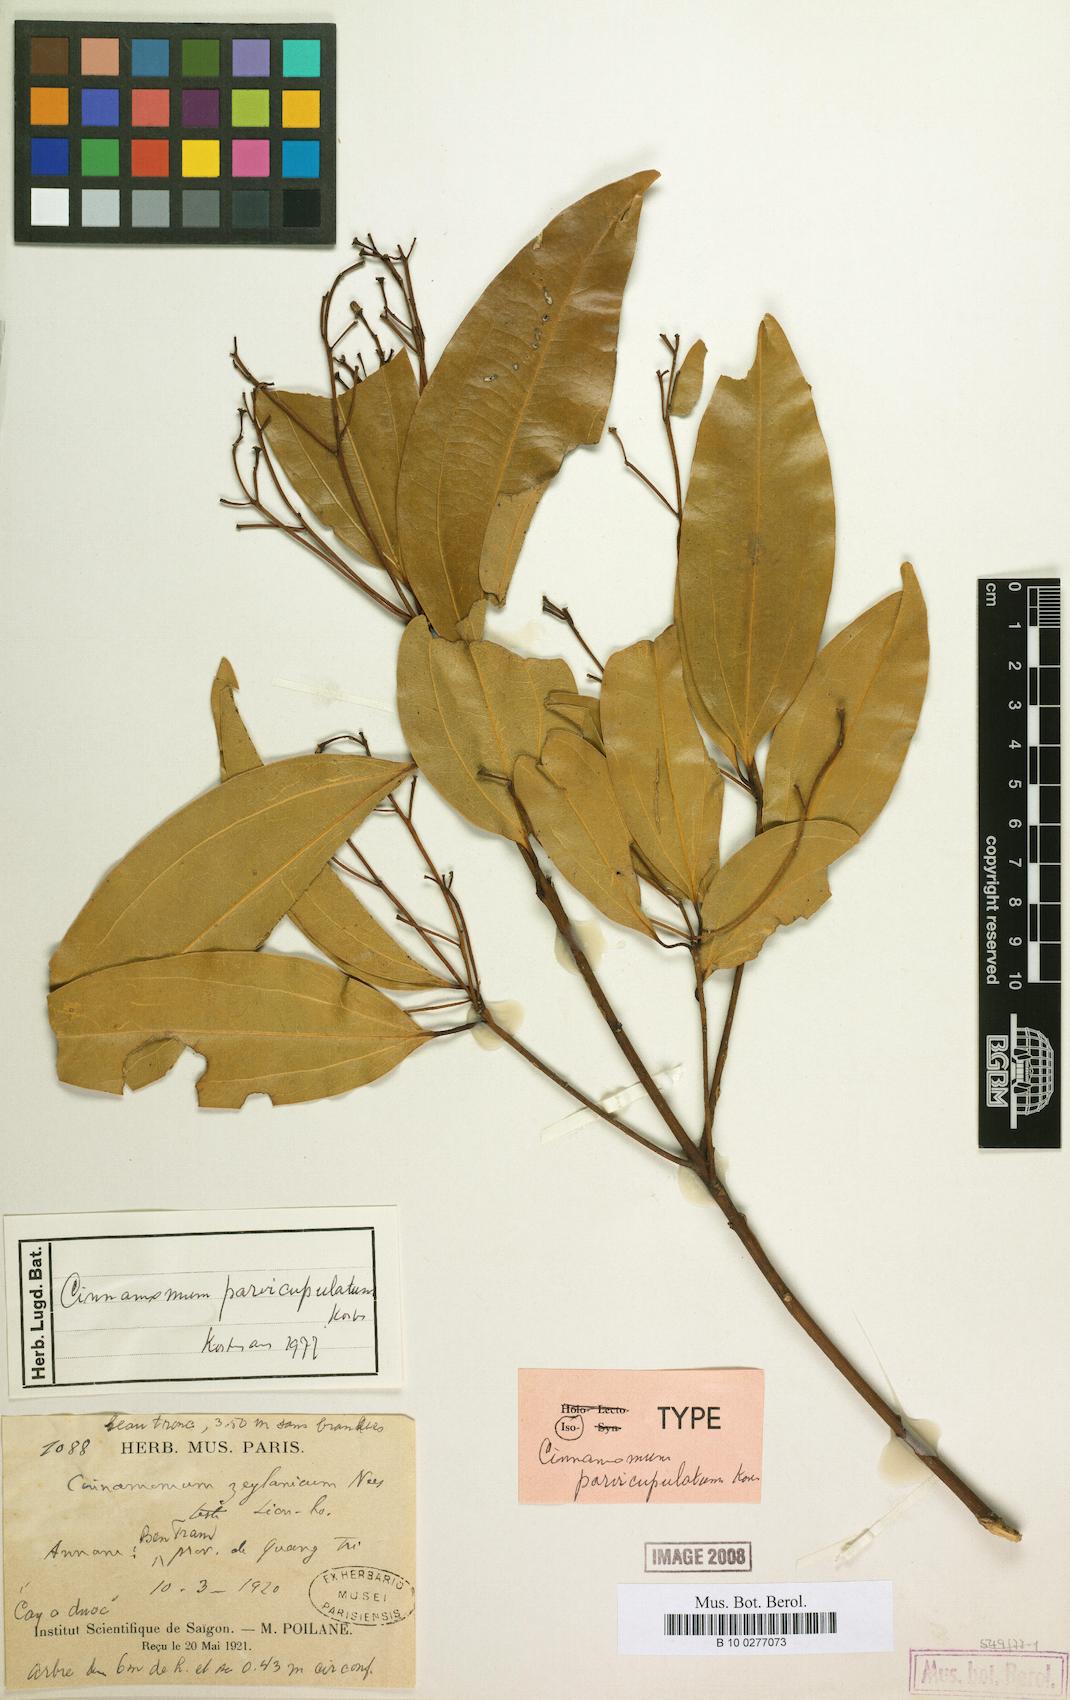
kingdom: Plantae
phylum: Tracheophyta
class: Magnoliopsida
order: Laurales
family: Lauraceae
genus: Cinnamomum
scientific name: Cinnamomum
